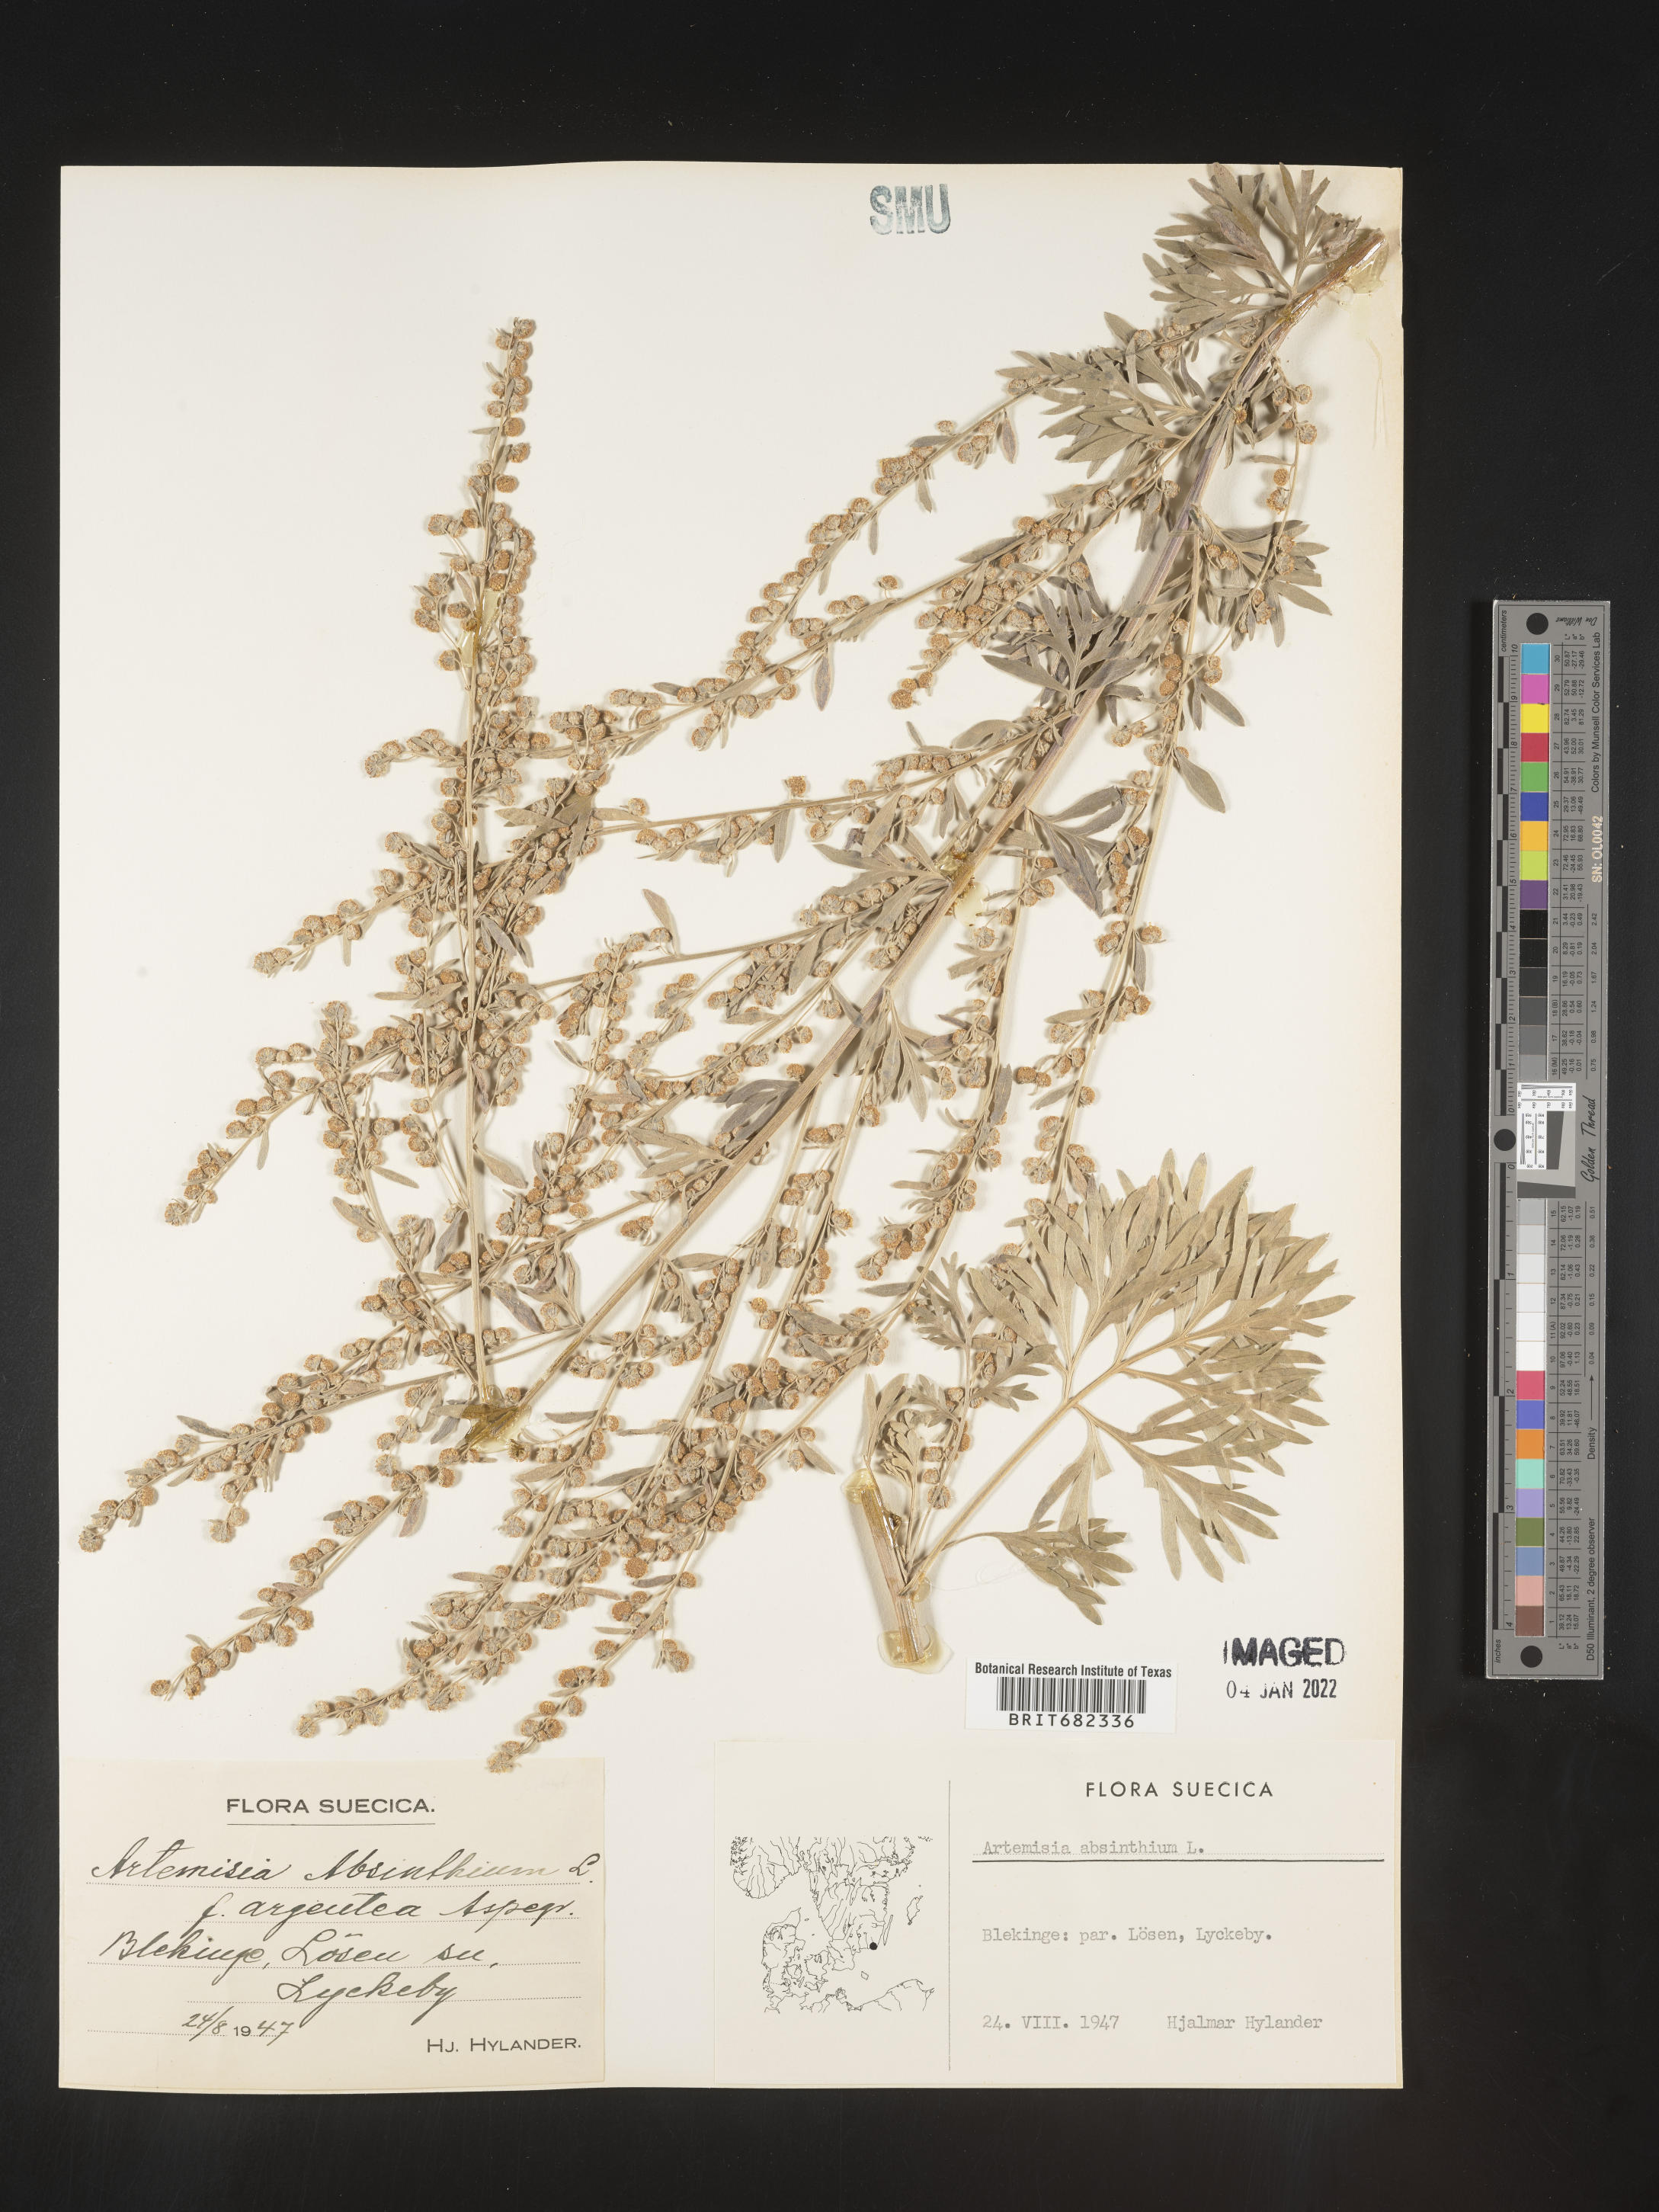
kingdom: Plantae
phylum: Tracheophyta
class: Magnoliopsida
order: Asterales
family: Asteraceae
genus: Artemisia
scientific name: Artemisia
